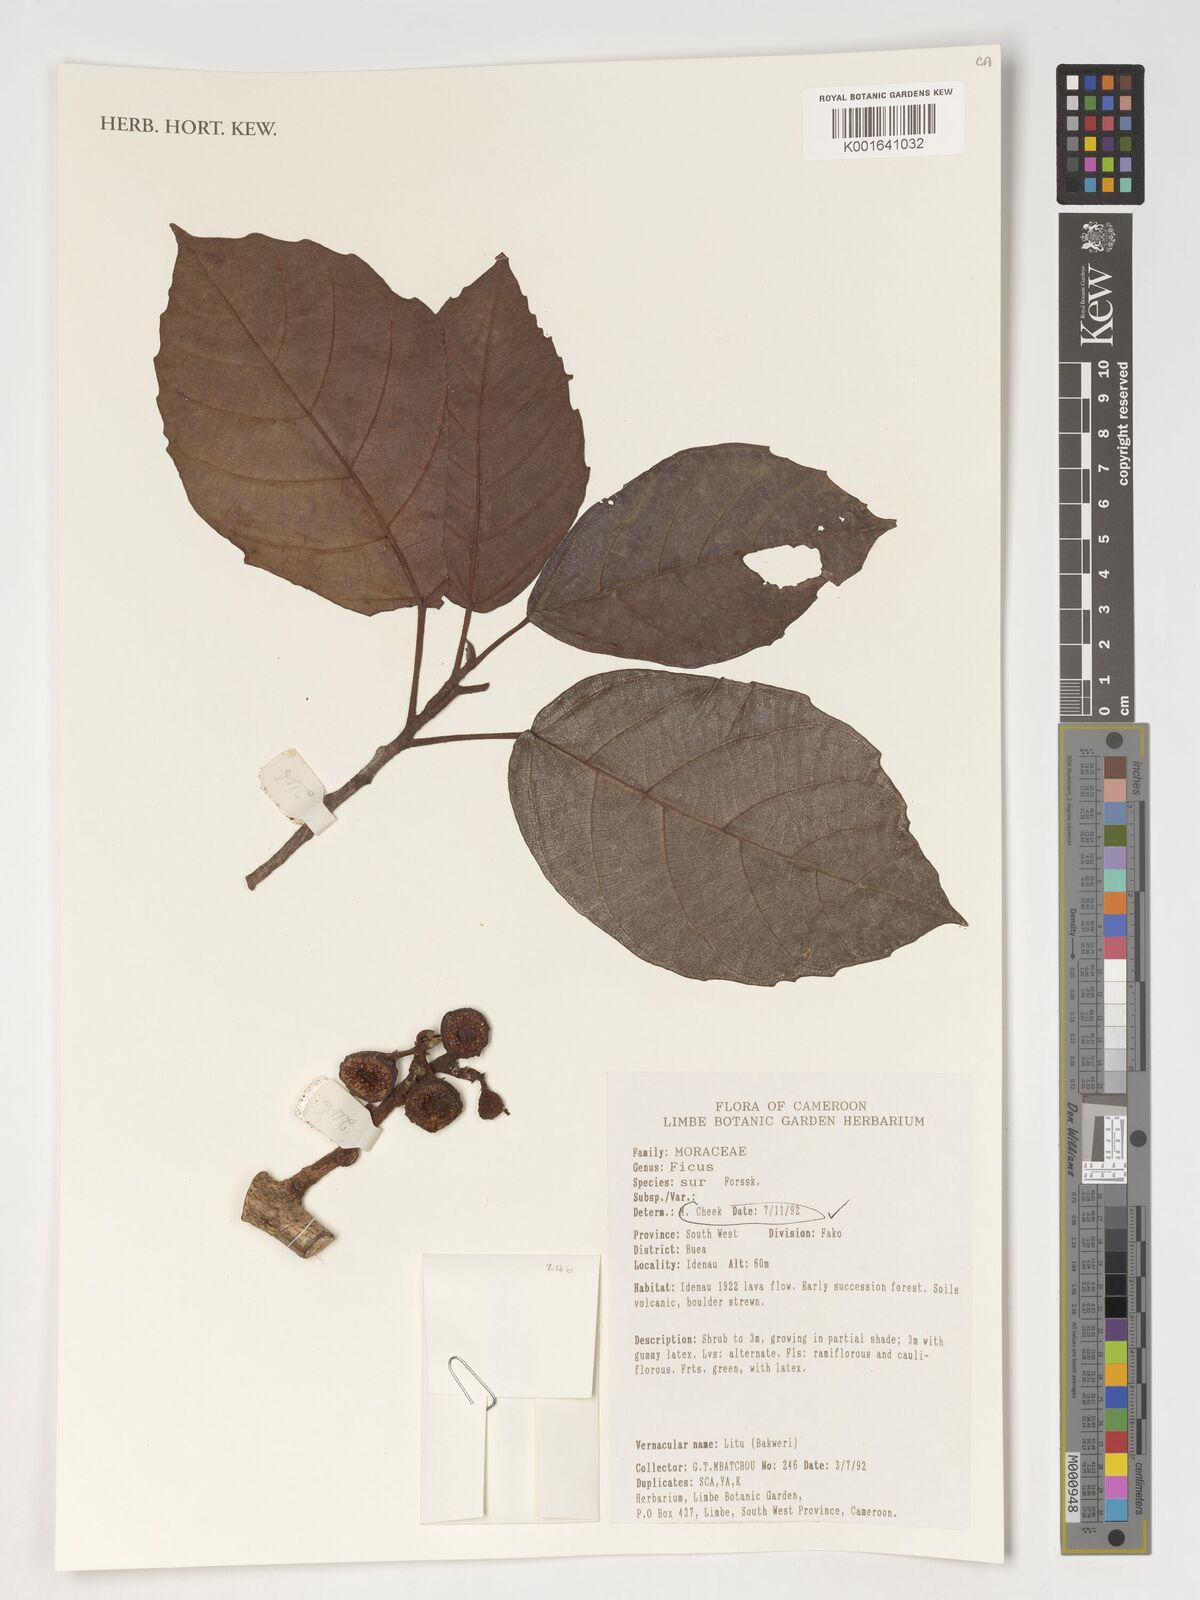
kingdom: Plantae
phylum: Tracheophyta
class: Magnoliopsida
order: Rosales
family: Moraceae
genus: Ficus
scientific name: Ficus sur
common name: Cape fig
